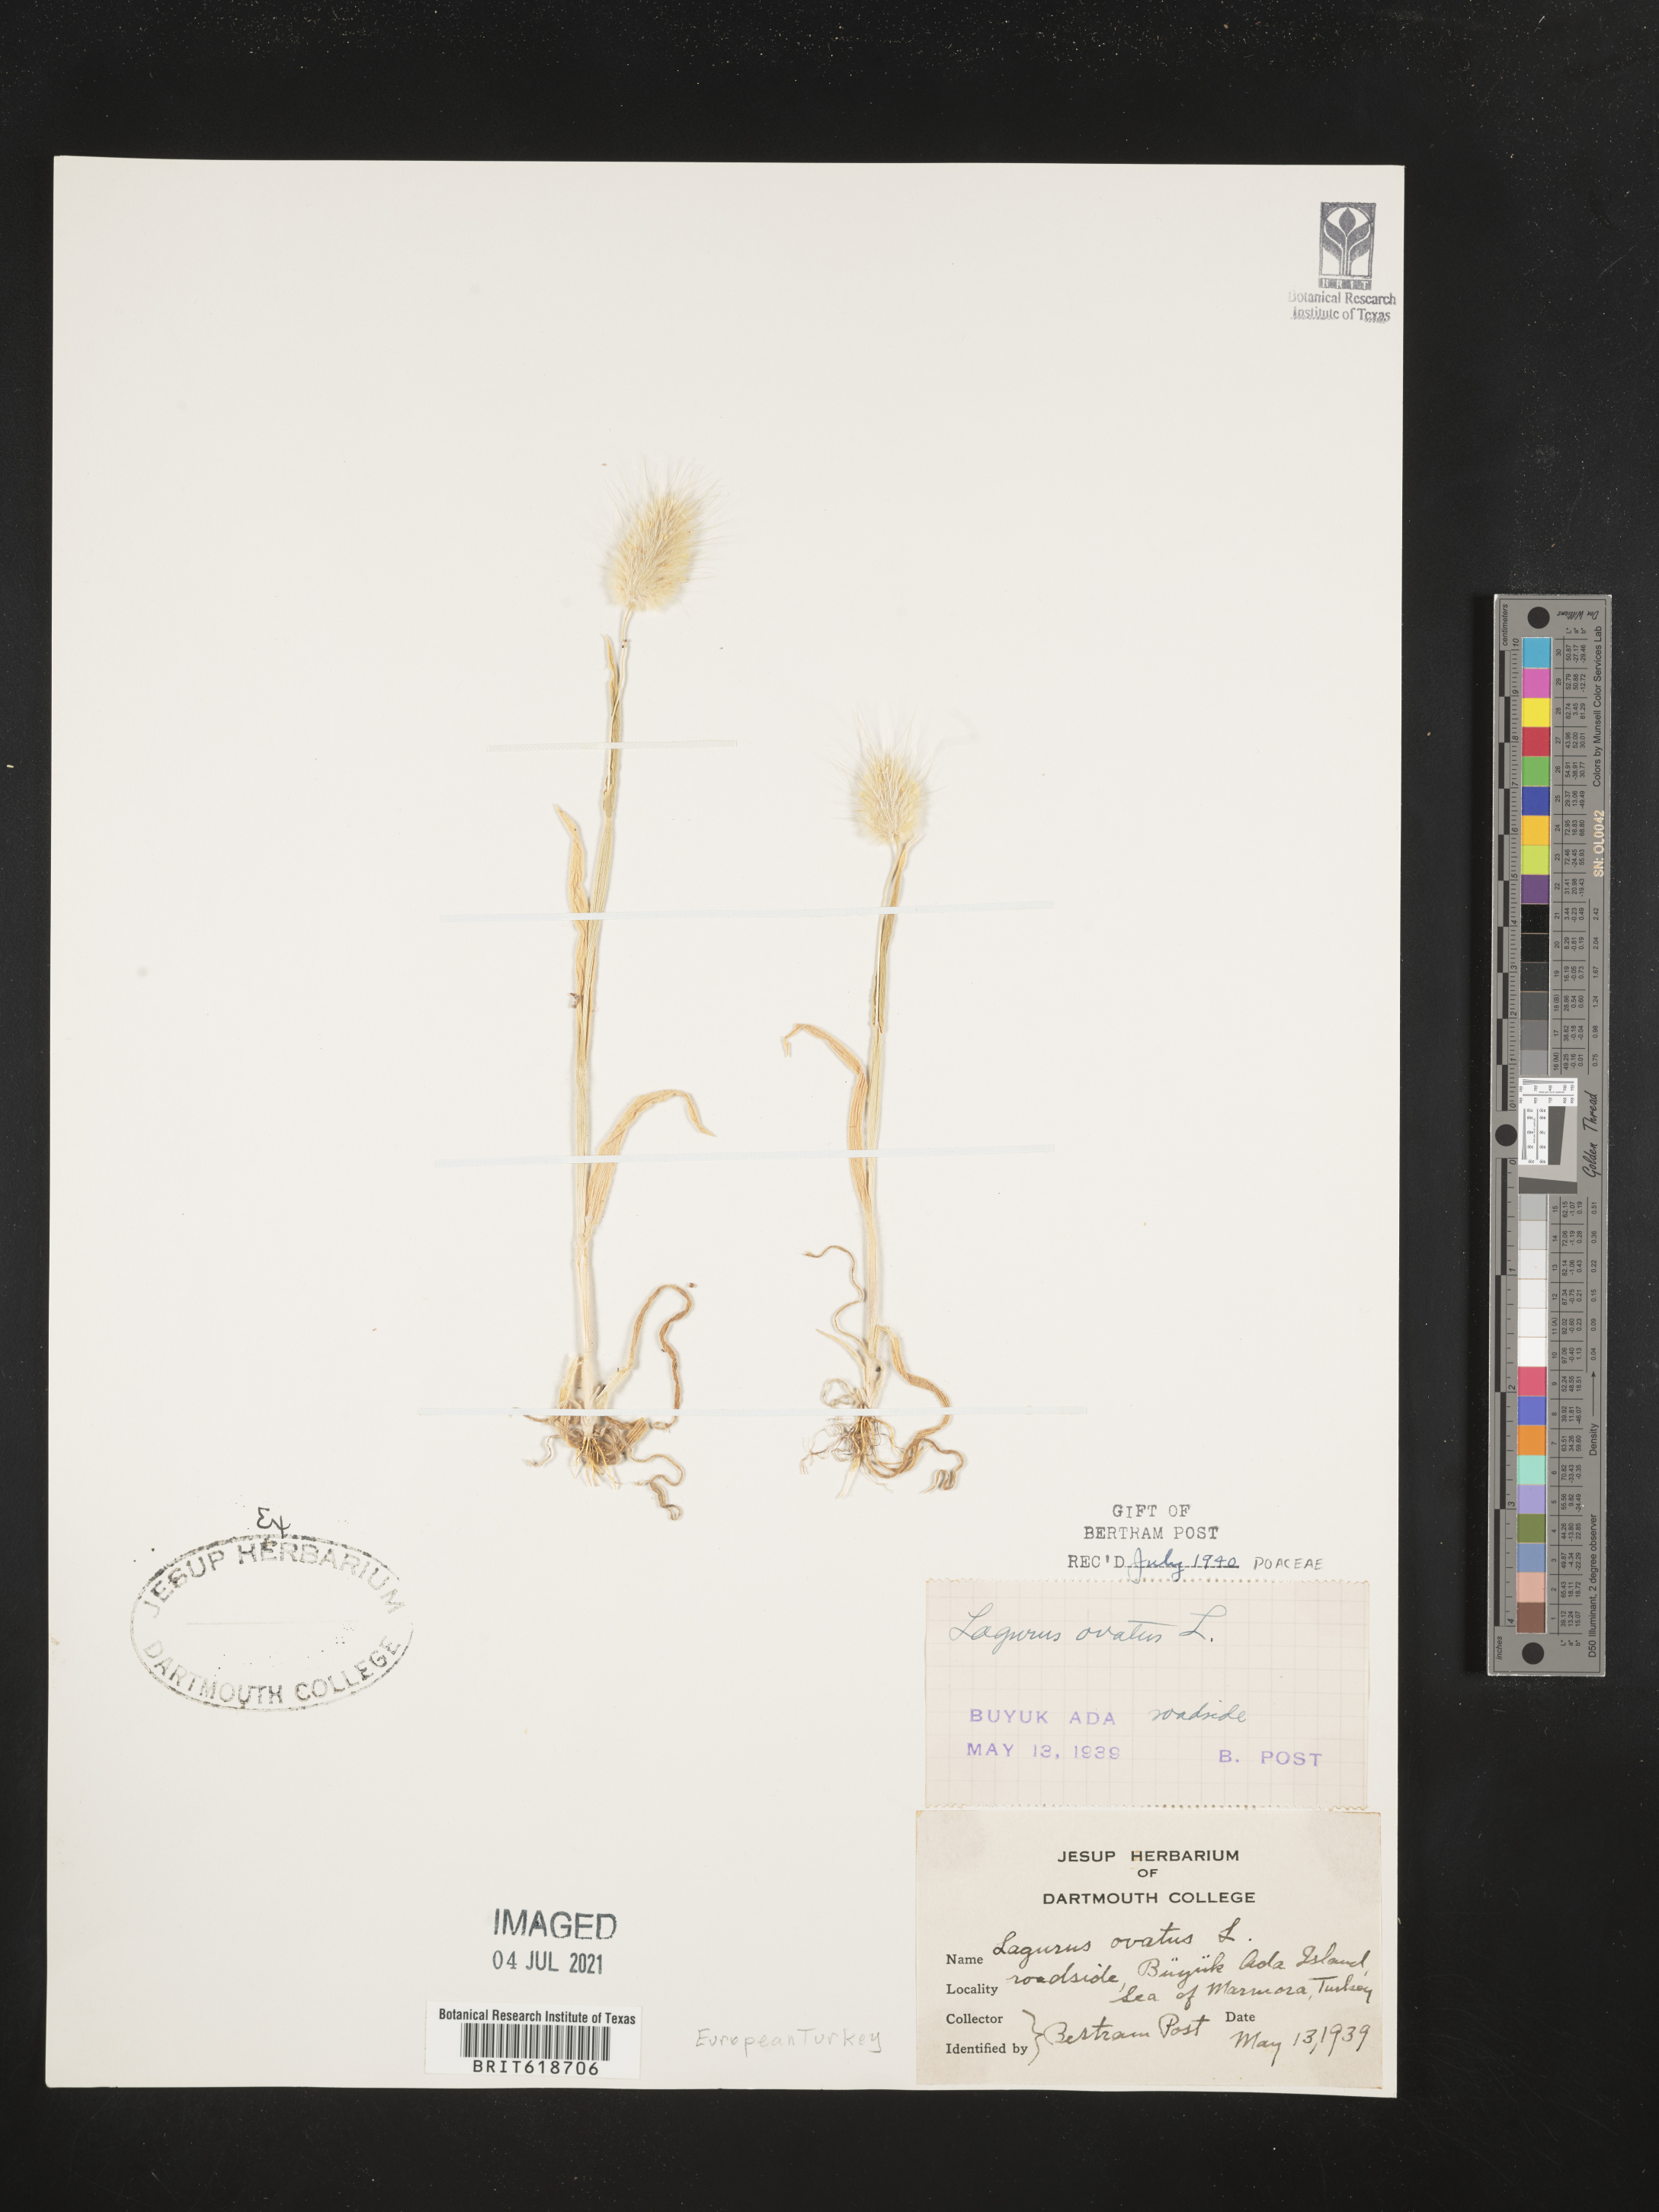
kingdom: Plantae
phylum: Tracheophyta
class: Liliopsida
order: Poales
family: Poaceae
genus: Lagurus
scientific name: Lagurus ovatus
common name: Hare's-tail
